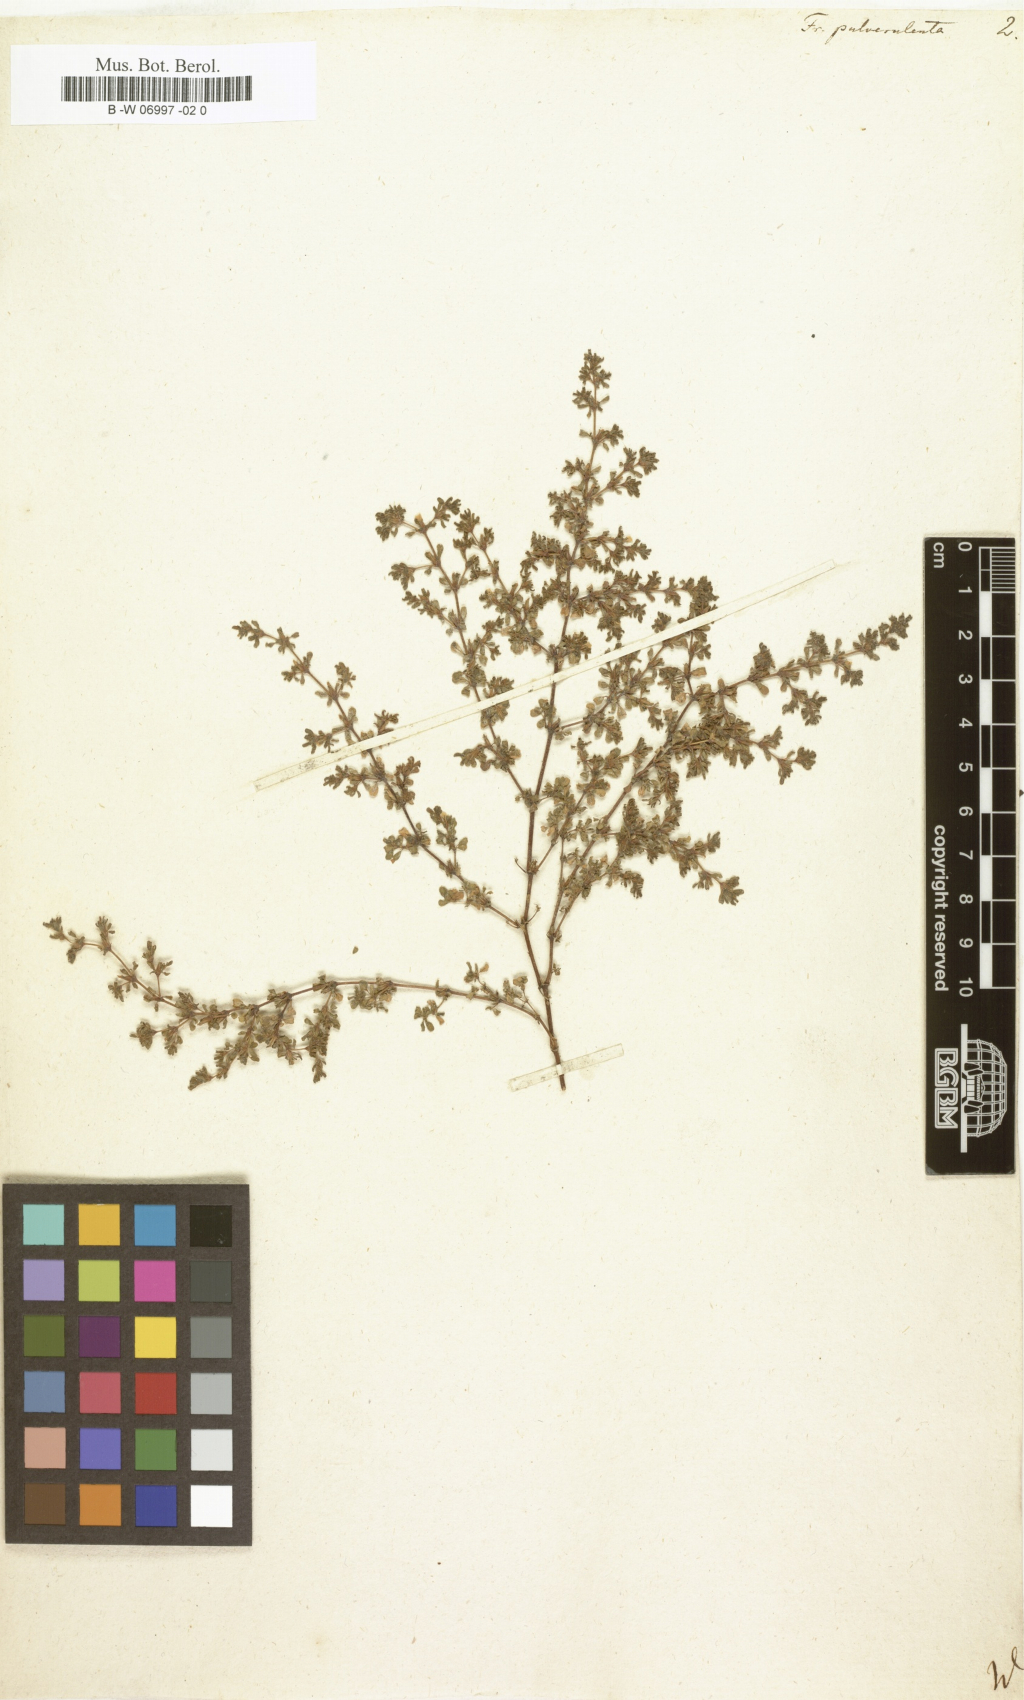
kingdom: Plantae
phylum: Tracheophyta
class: Magnoliopsida
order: Caryophyllales
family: Frankeniaceae
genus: Frankenia
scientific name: Frankenia pulverulenta
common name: European seaheath
